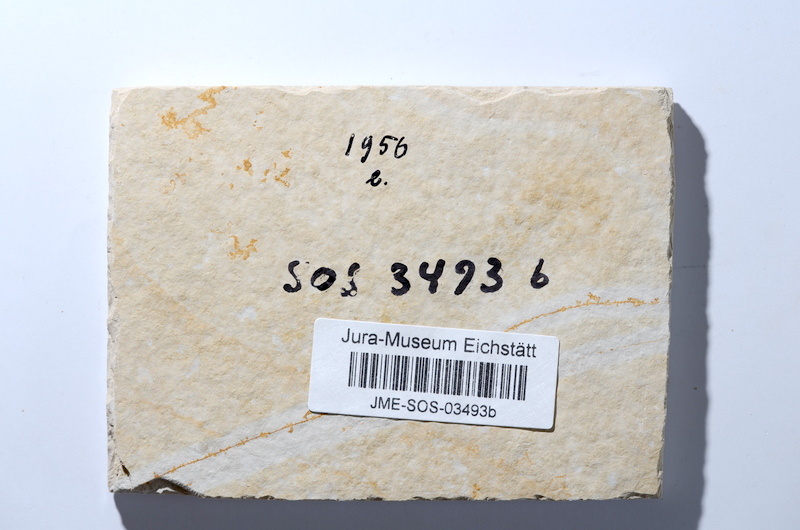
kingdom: Animalia
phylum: Chordata
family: Ascalaboidae
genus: Tharsis
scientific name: Tharsis dubius
